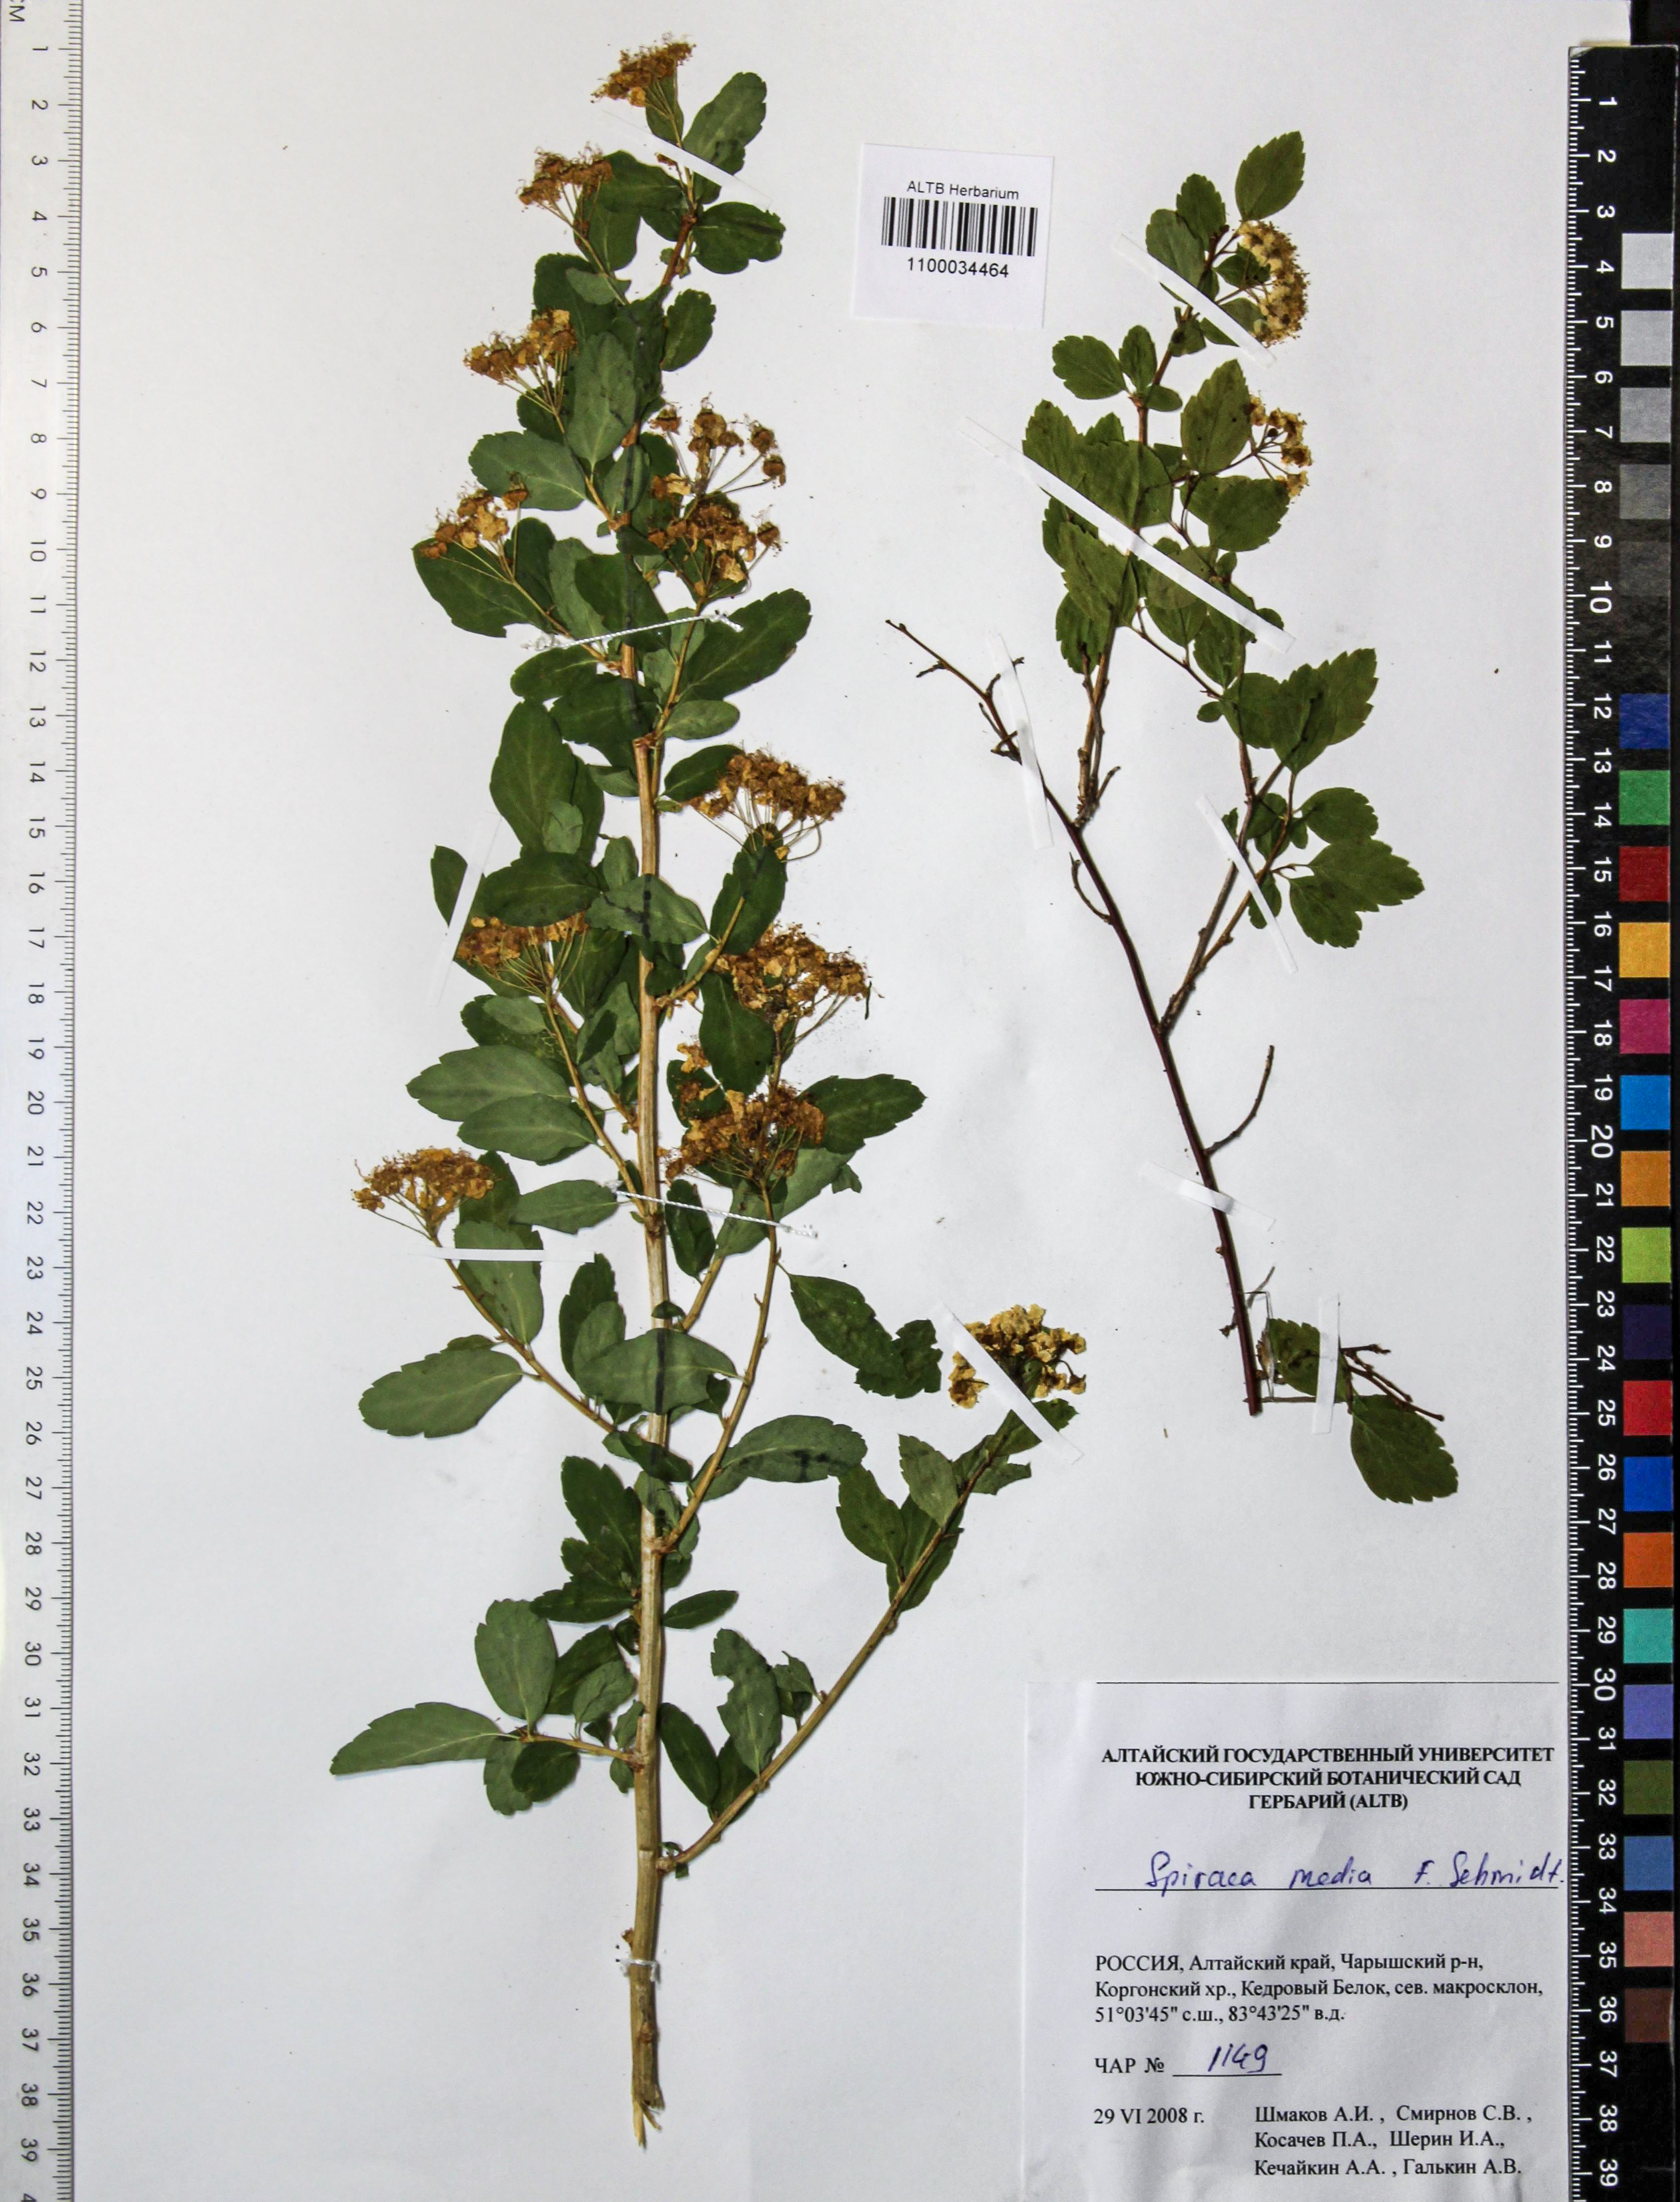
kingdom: Plantae
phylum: Tracheophyta
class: Magnoliopsida
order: Rosales
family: Rosaceae
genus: Spiraea
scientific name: Spiraea media
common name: Russian spiraea
